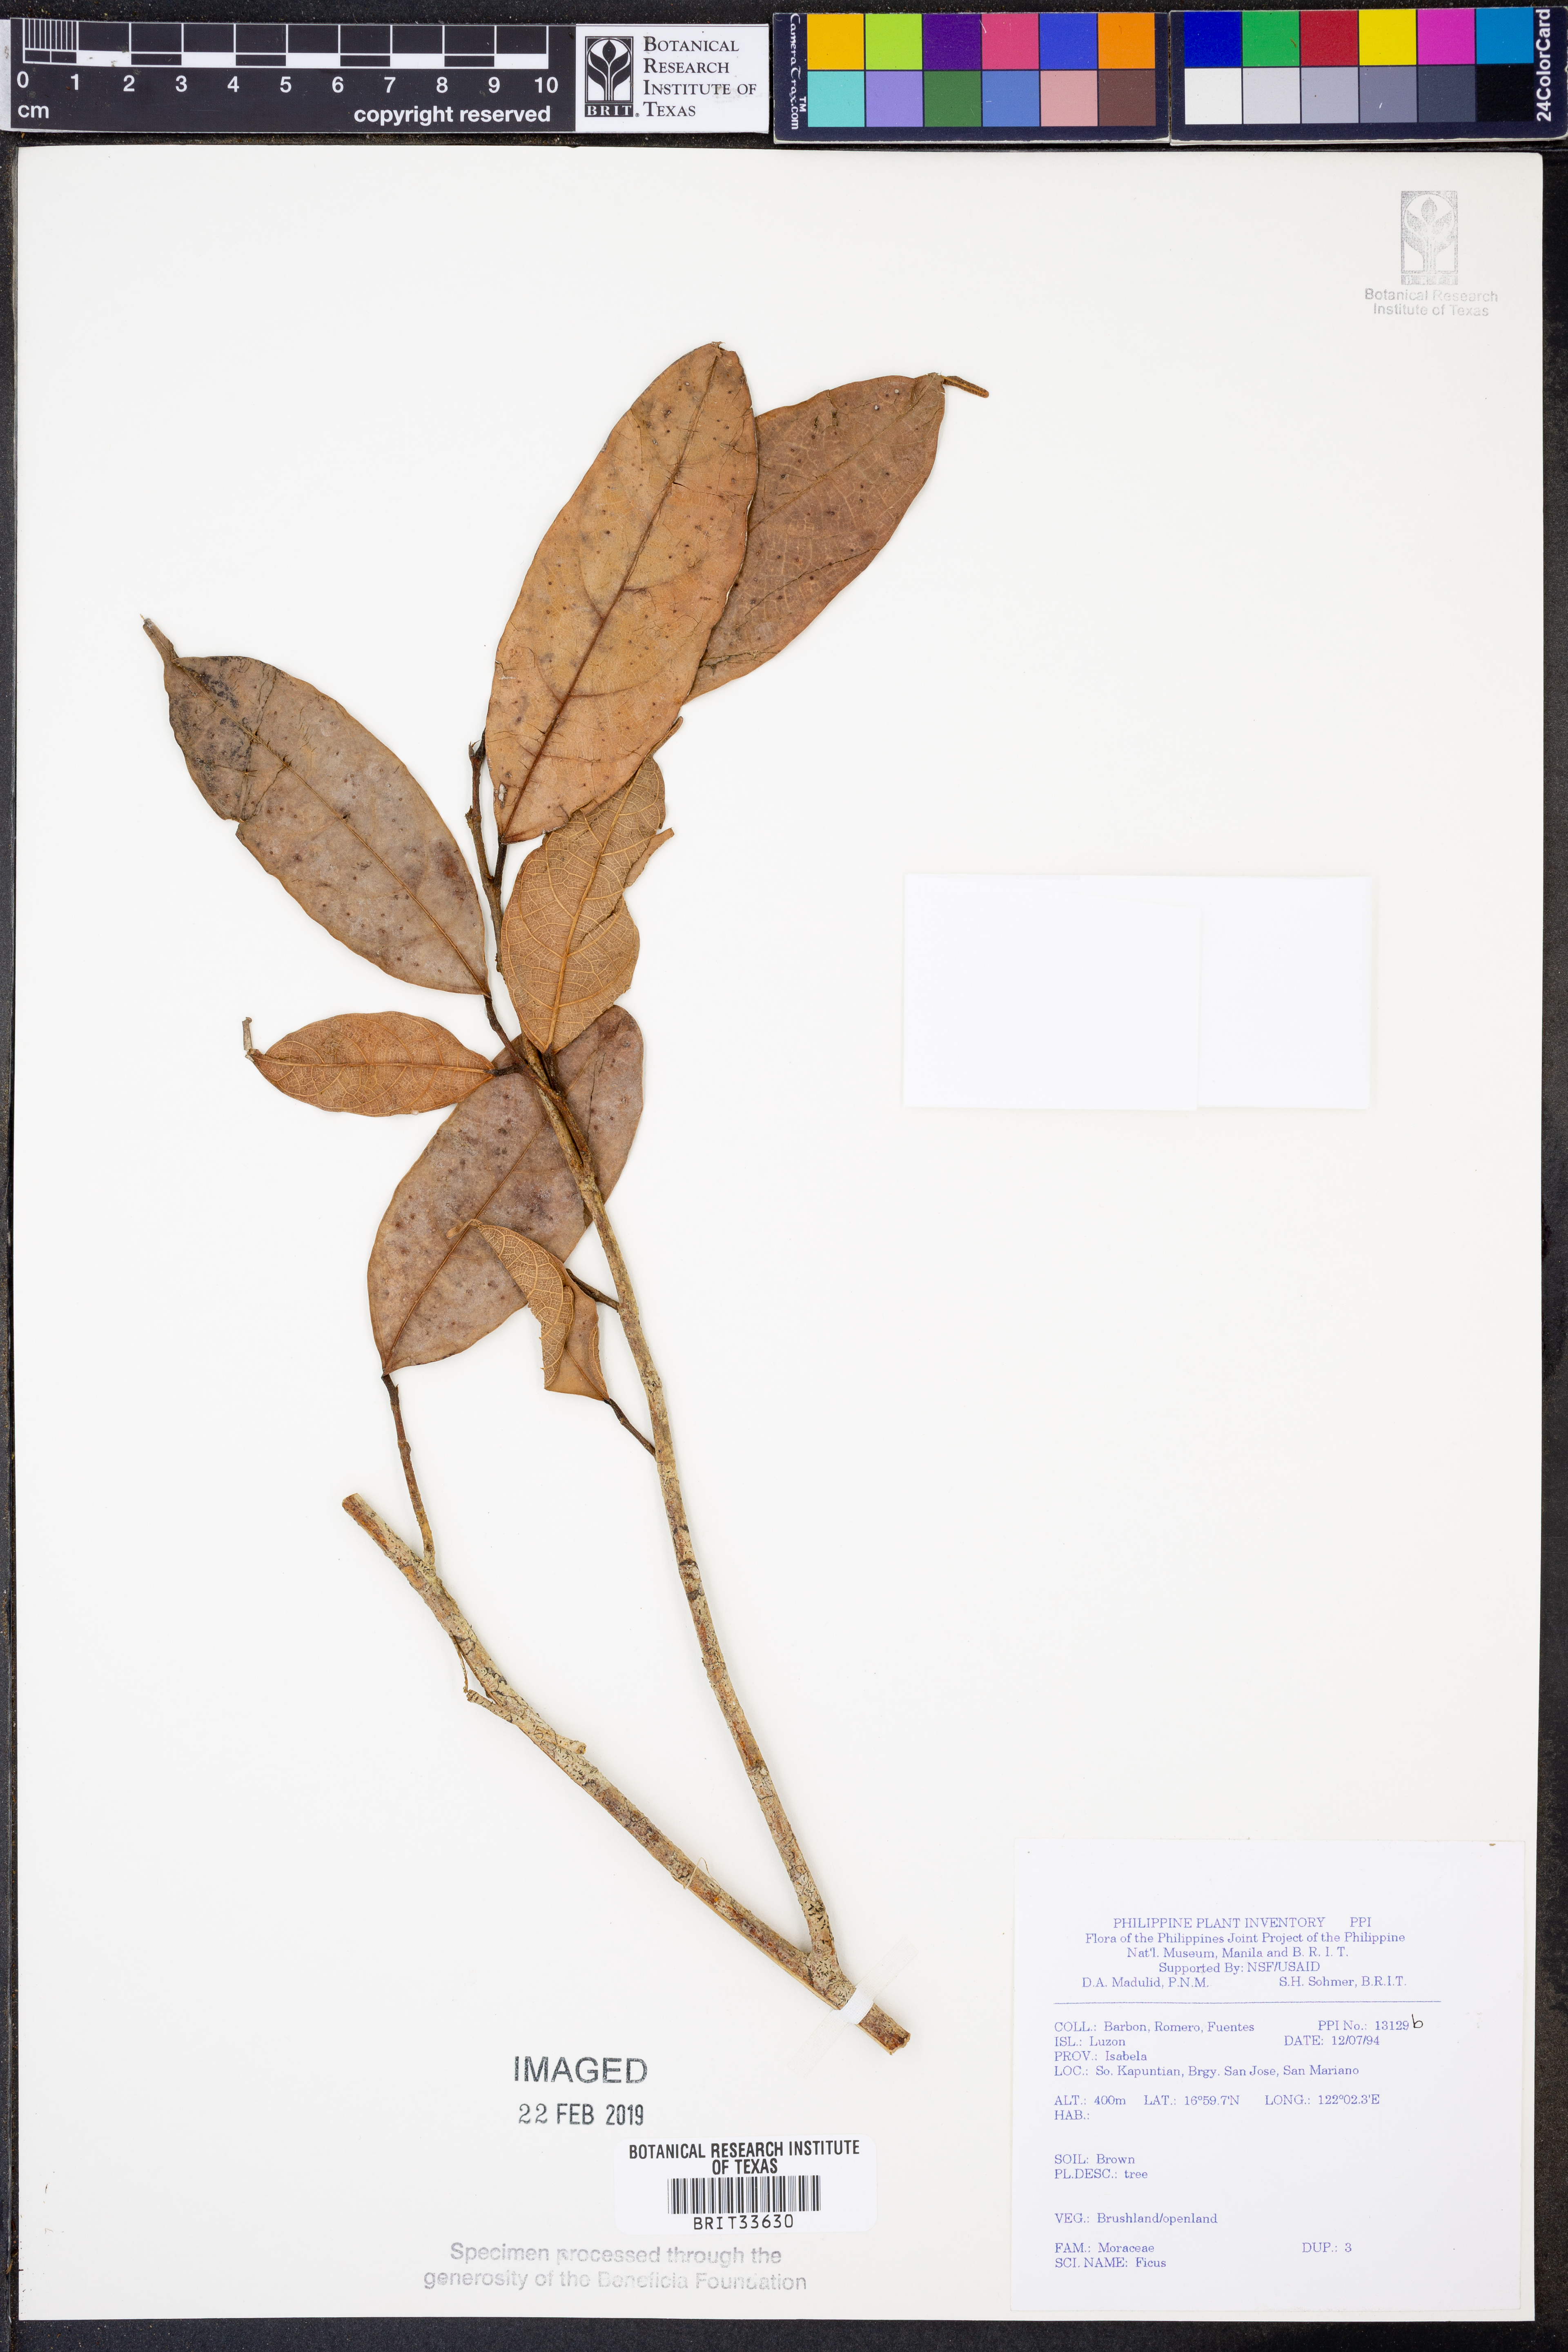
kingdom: Plantae
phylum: Tracheophyta
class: Magnoliopsida
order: Rosales
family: Moraceae
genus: Ficus
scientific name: Ficus
